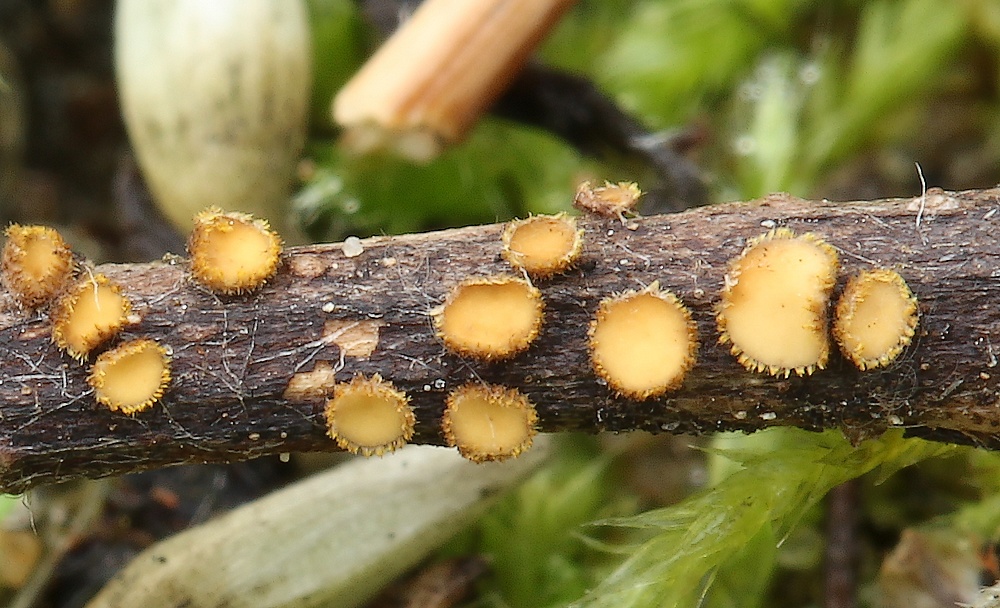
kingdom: Fungi
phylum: Ascomycota
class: Leotiomycetes
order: Helotiales
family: Lachnaceae
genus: Lachnum
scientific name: Lachnum mollissimum
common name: smuk frynseskive
